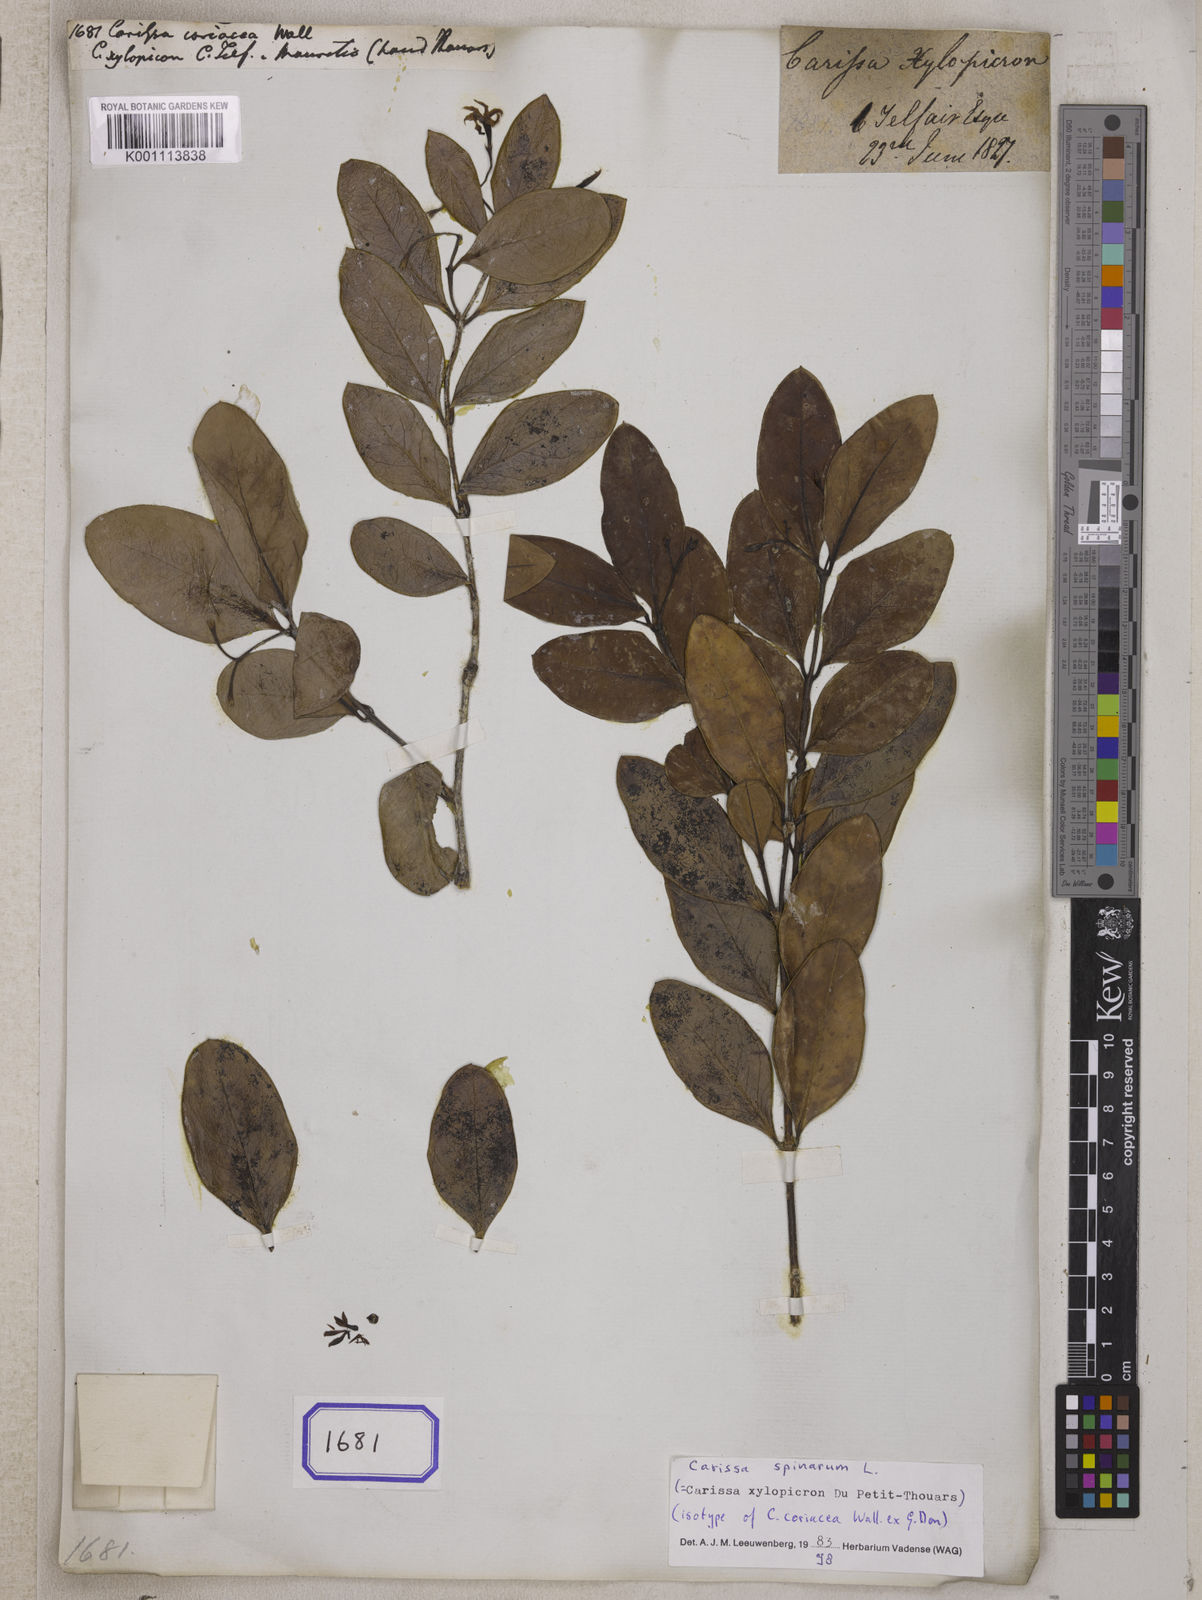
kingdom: Plantae
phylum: Tracheophyta
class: Magnoliopsida
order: Gentianales
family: Apocynaceae
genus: Carissa
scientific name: Carissa
